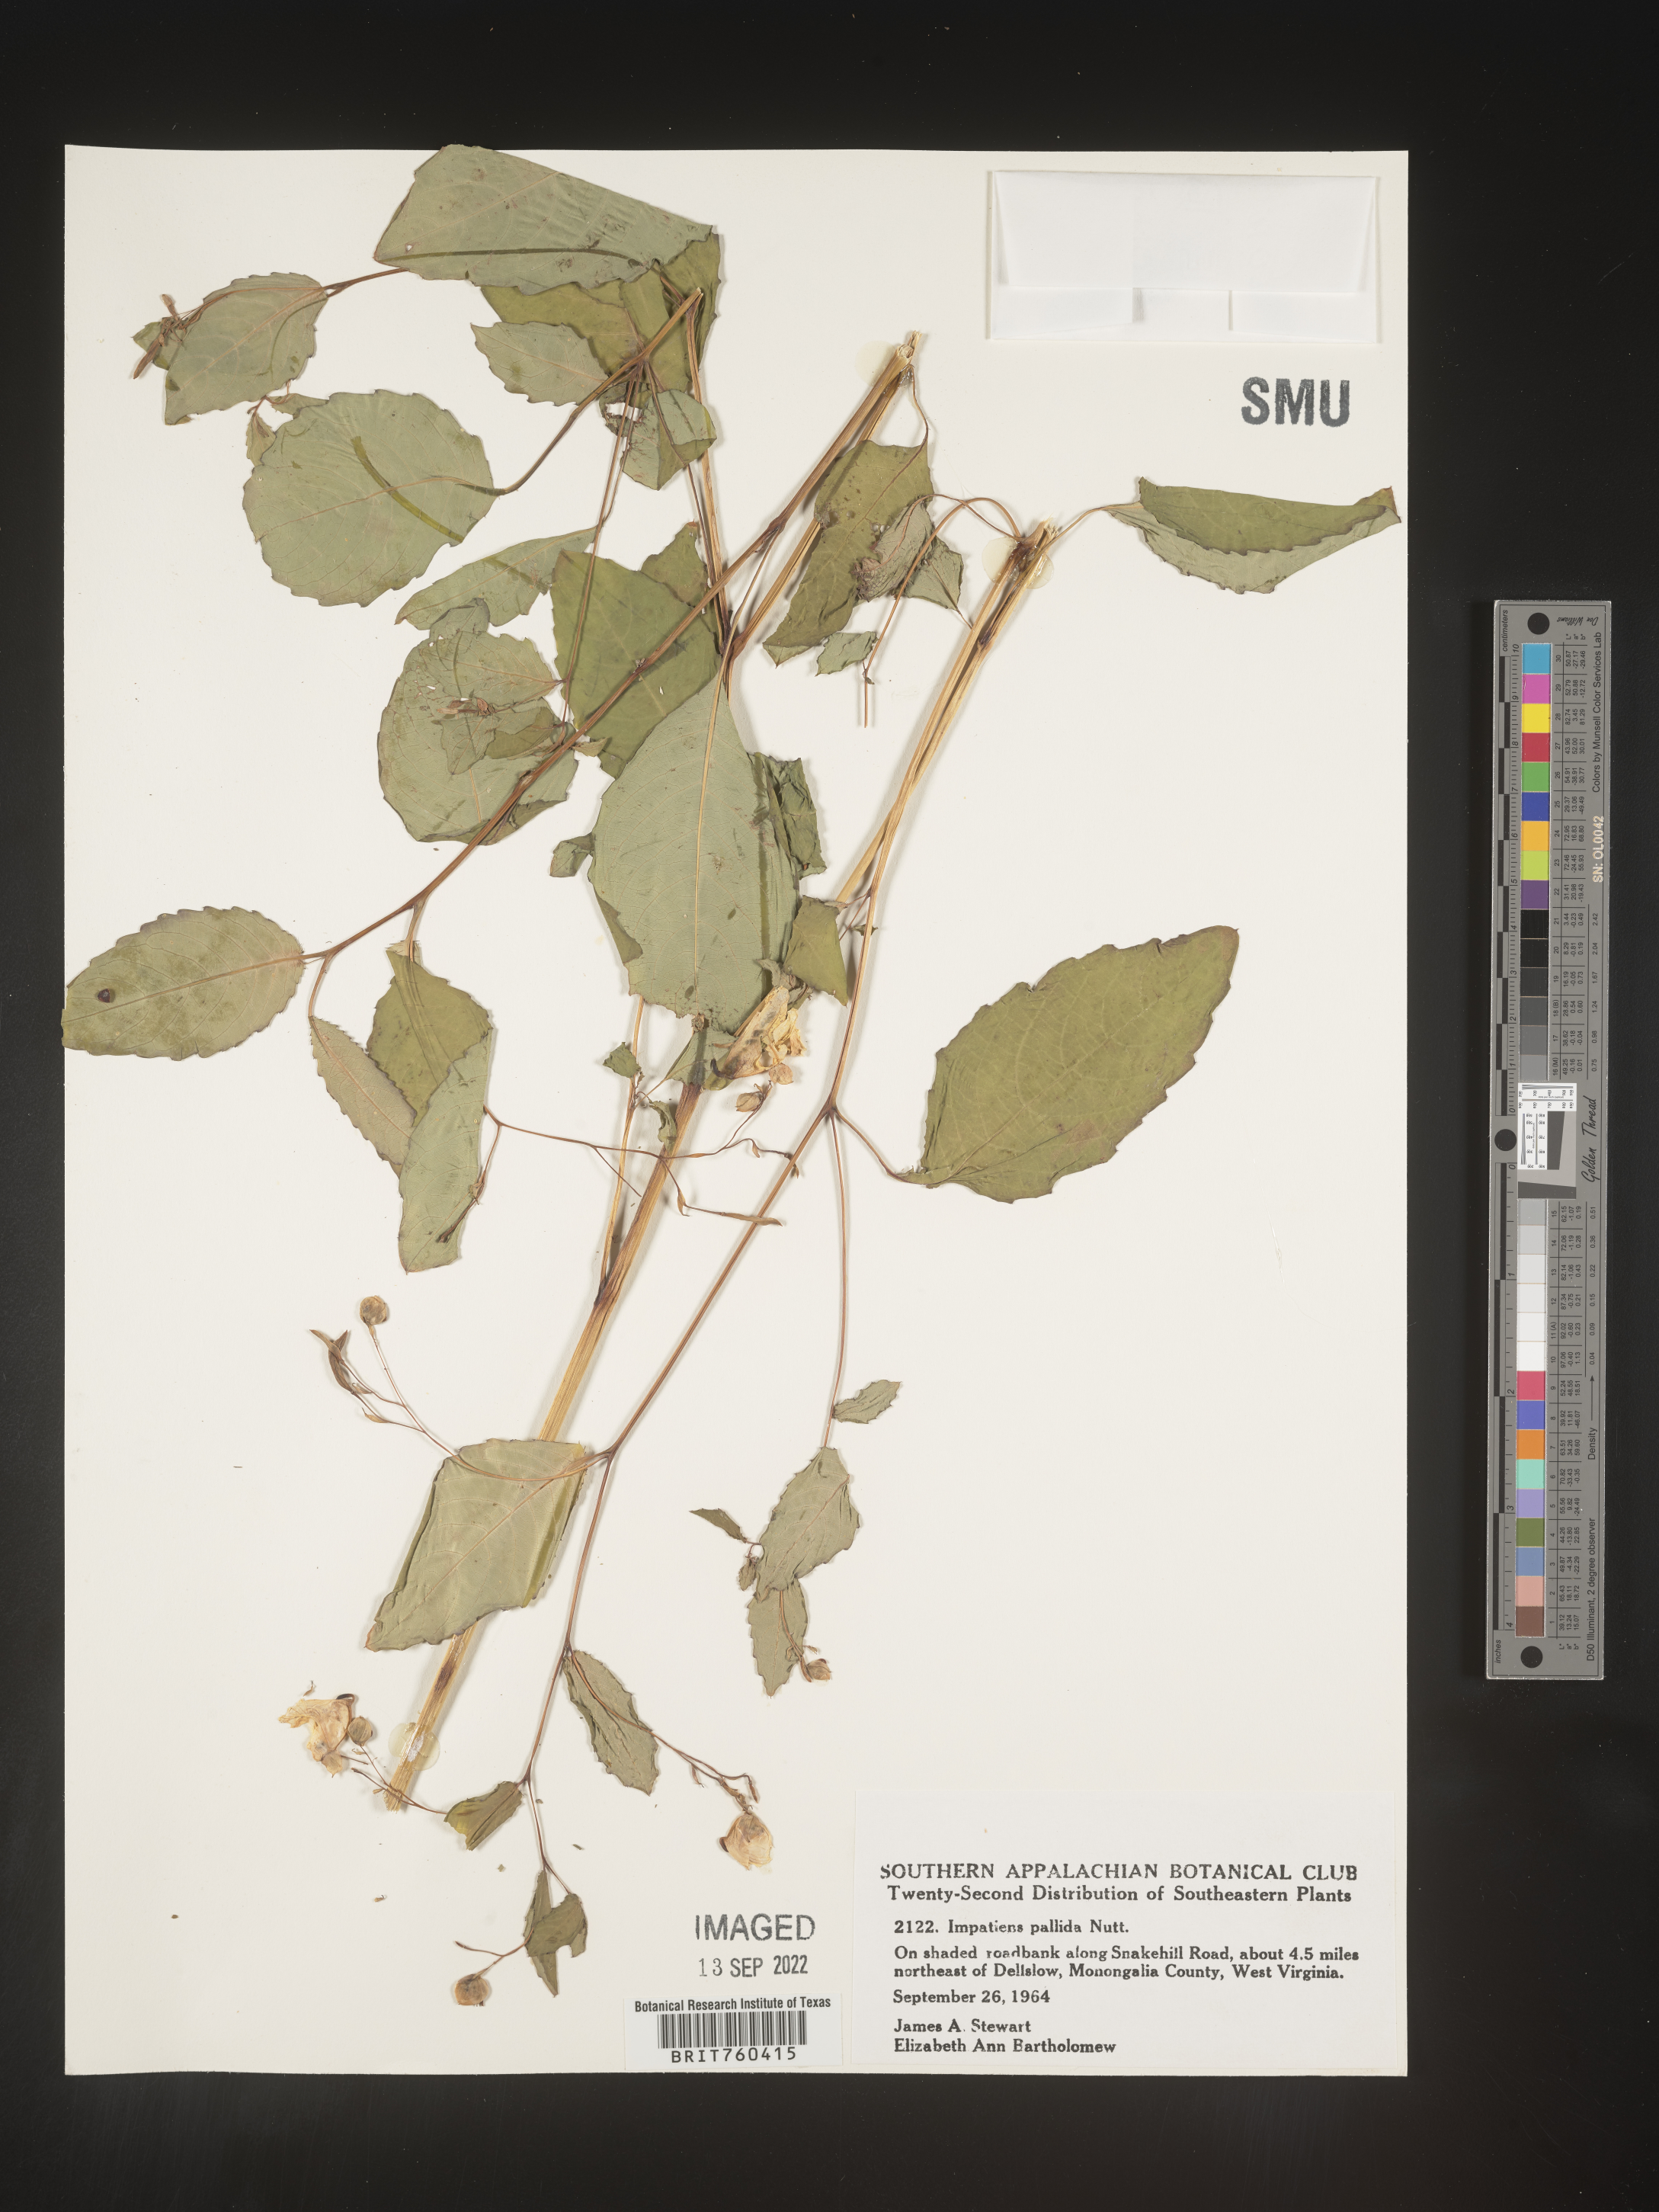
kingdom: Plantae
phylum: Tracheophyta
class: Magnoliopsida
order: Ericales
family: Balsaminaceae
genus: Impatiens
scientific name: Impatiens pallida
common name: Pale snapweed
